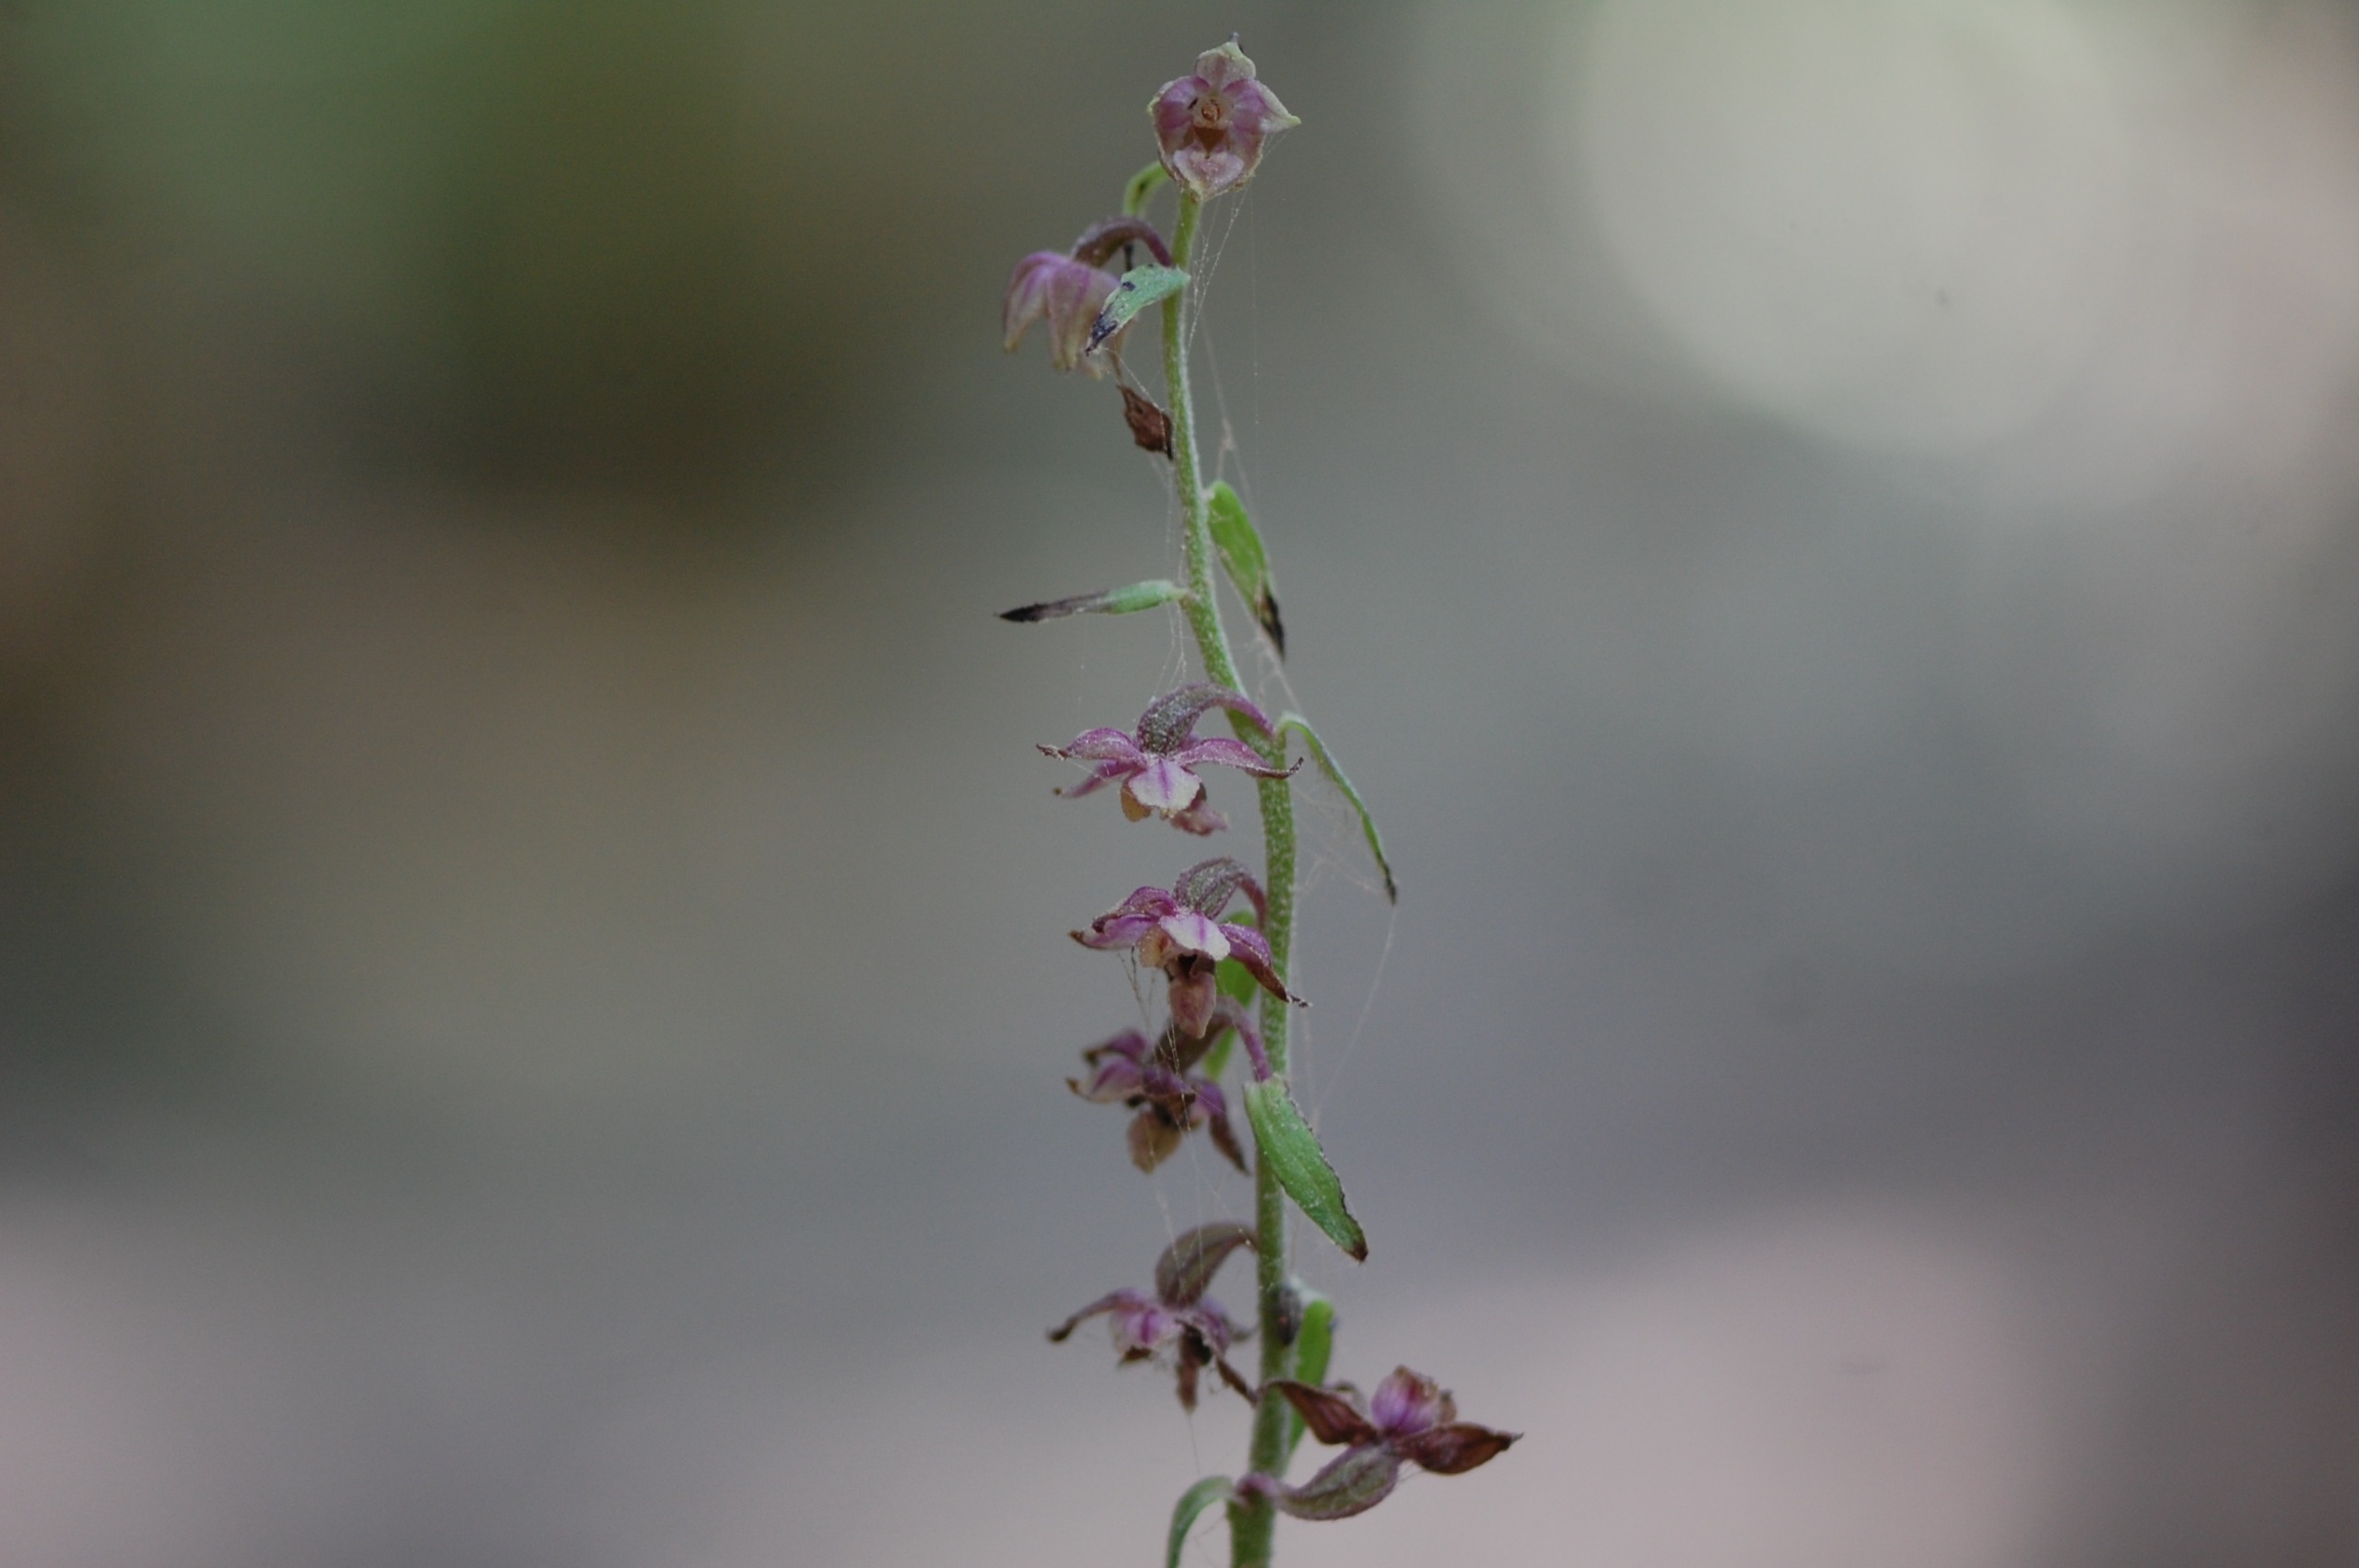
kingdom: Plantae
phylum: Tracheophyta
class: Liliopsida
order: Asparagales
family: Orchidaceae
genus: Epipactis
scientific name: Epipactis atrorubens
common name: Rød hullæbe
